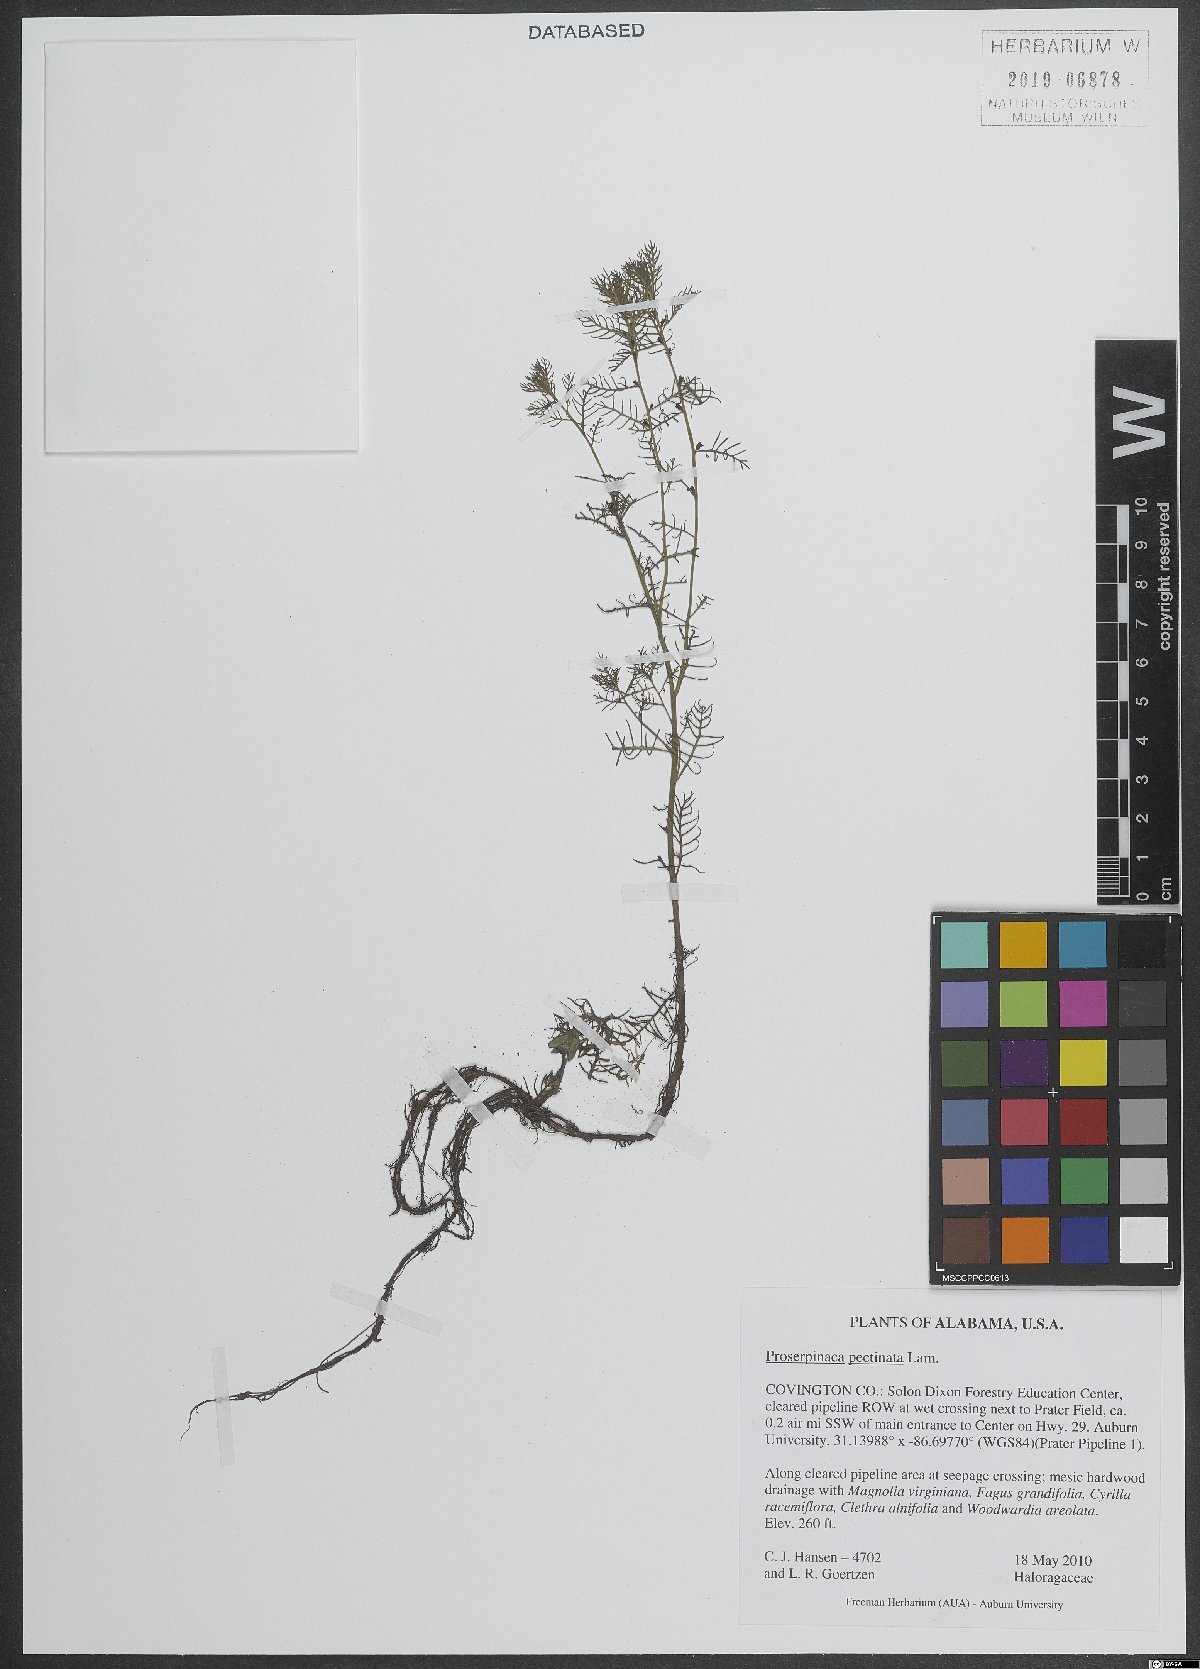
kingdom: Plantae
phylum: Tracheophyta
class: Magnoliopsida
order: Saxifragales
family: Haloragaceae
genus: Proserpinaca
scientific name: Proserpinaca pectinata
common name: Comb-leaved mermaidweed
